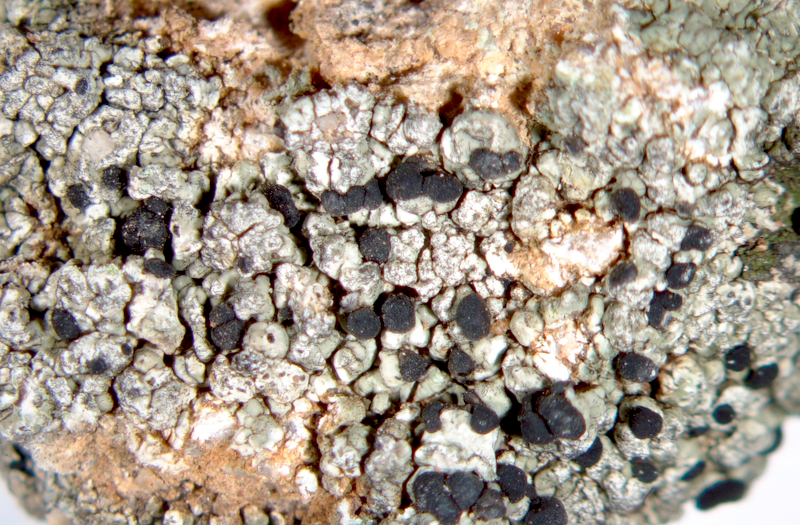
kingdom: Fungi
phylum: Ascomycota
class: Lecanoromycetes
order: Lecideales
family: Lecideaceae
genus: Lecidea
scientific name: Lecidea
